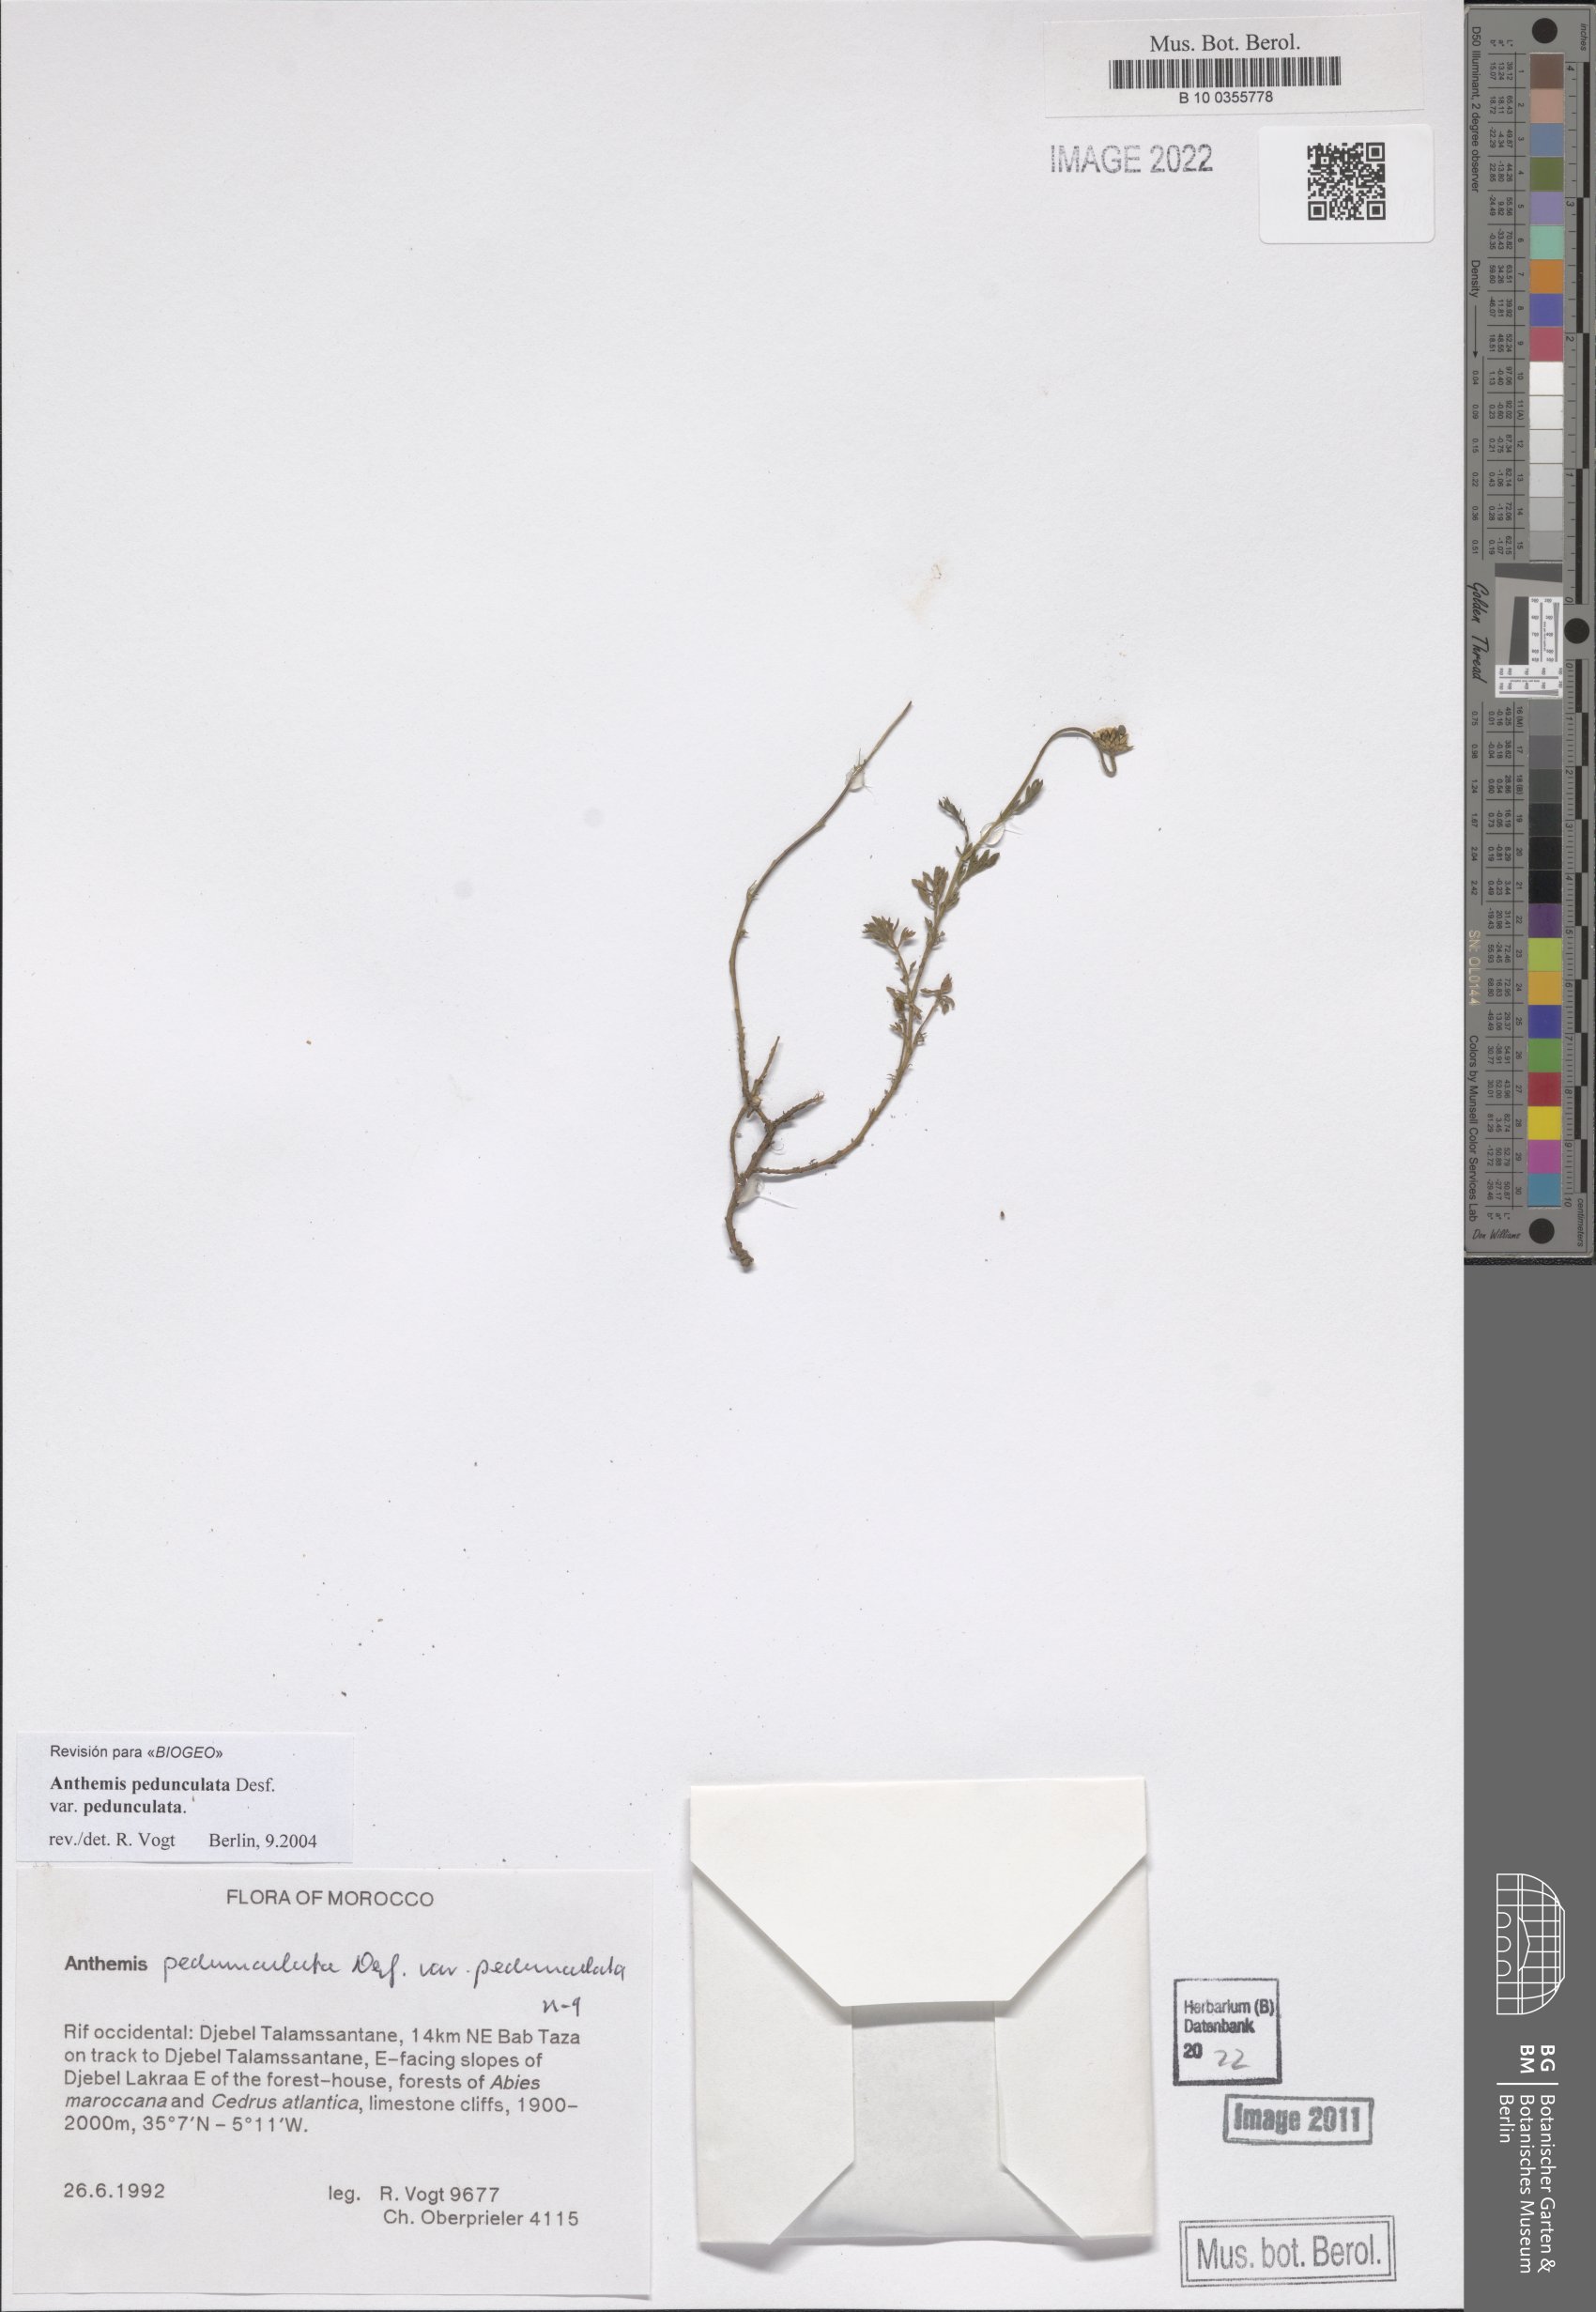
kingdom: Plantae
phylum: Tracheophyta
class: Magnoliopsida
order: Asterales
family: Asteraceae
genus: Anthemis
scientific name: Anthemis pedunculata
